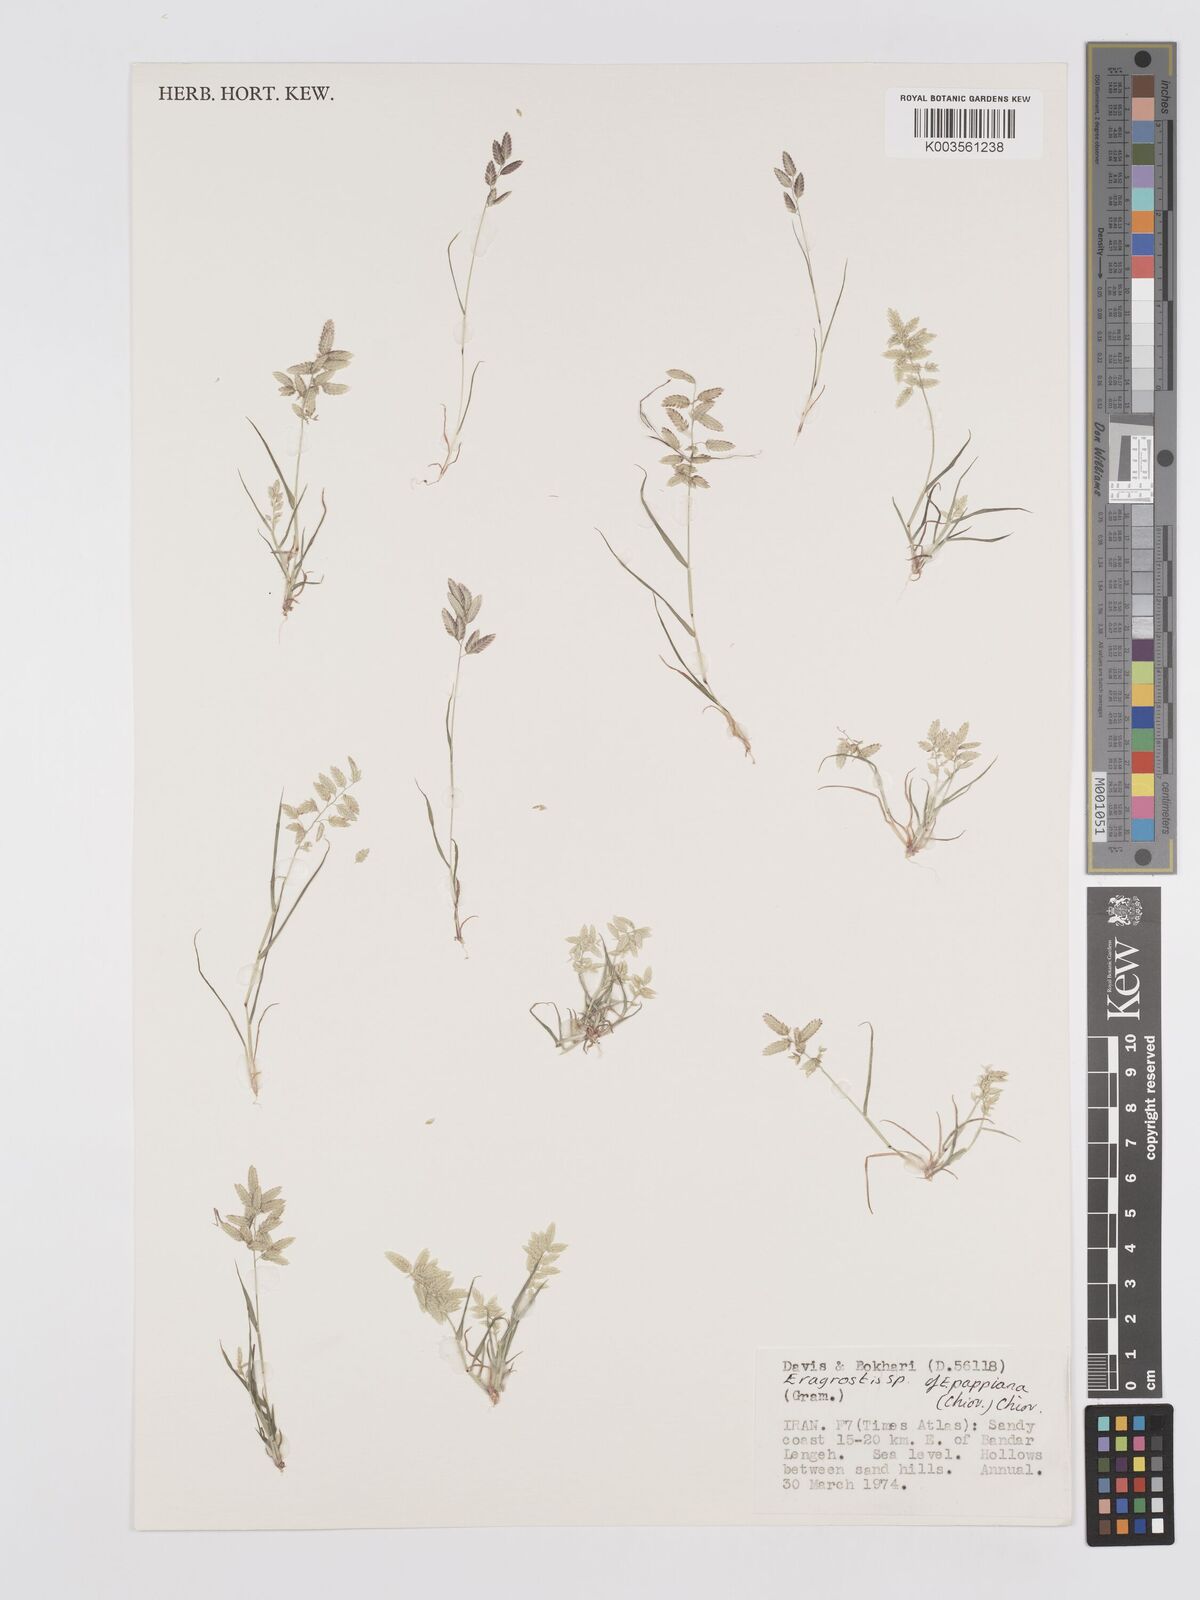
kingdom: Plantae
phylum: Tracheophyta
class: Liliopsida
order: Poales
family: Poaceae
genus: Eragrostis
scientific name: Eragrostis cilianensis
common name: Stinkgrass
